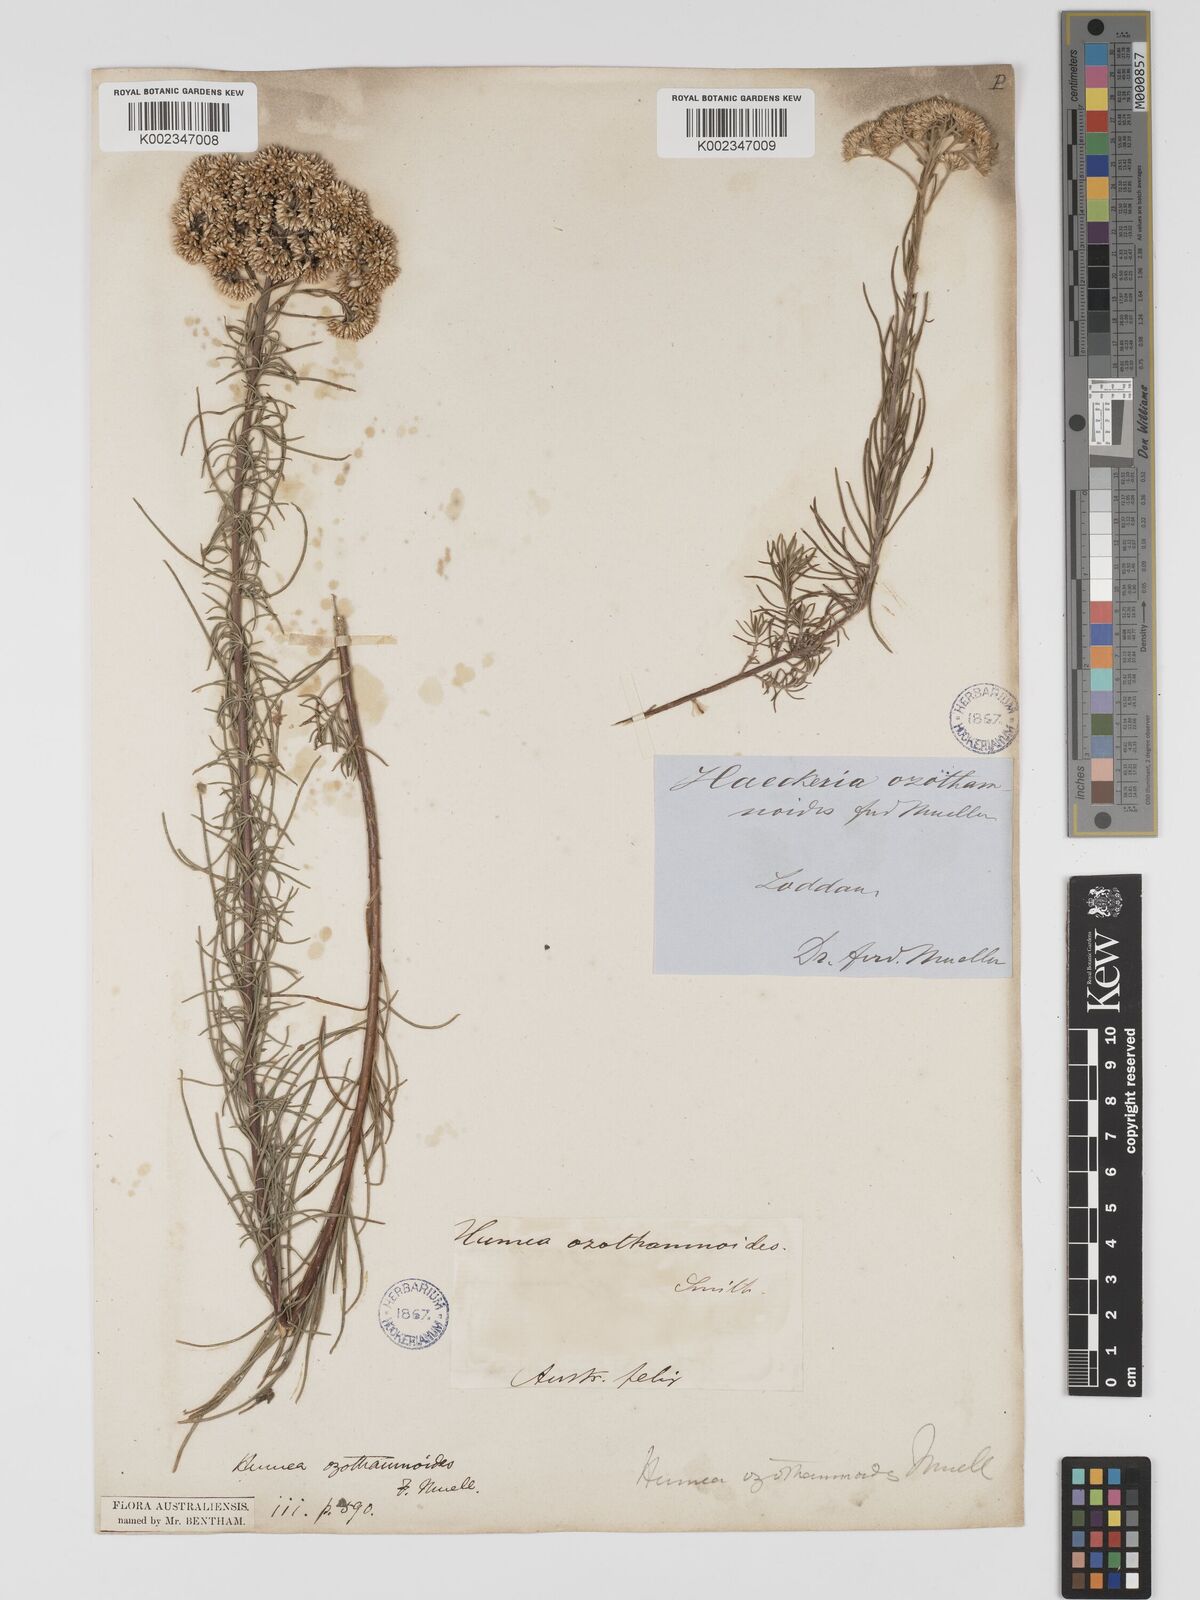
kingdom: Plantae
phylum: Tracheophyta
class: Magnoliopsida
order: Asterales
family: Asteraceae
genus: Cassinia
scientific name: Cassinia ozothamnoides
